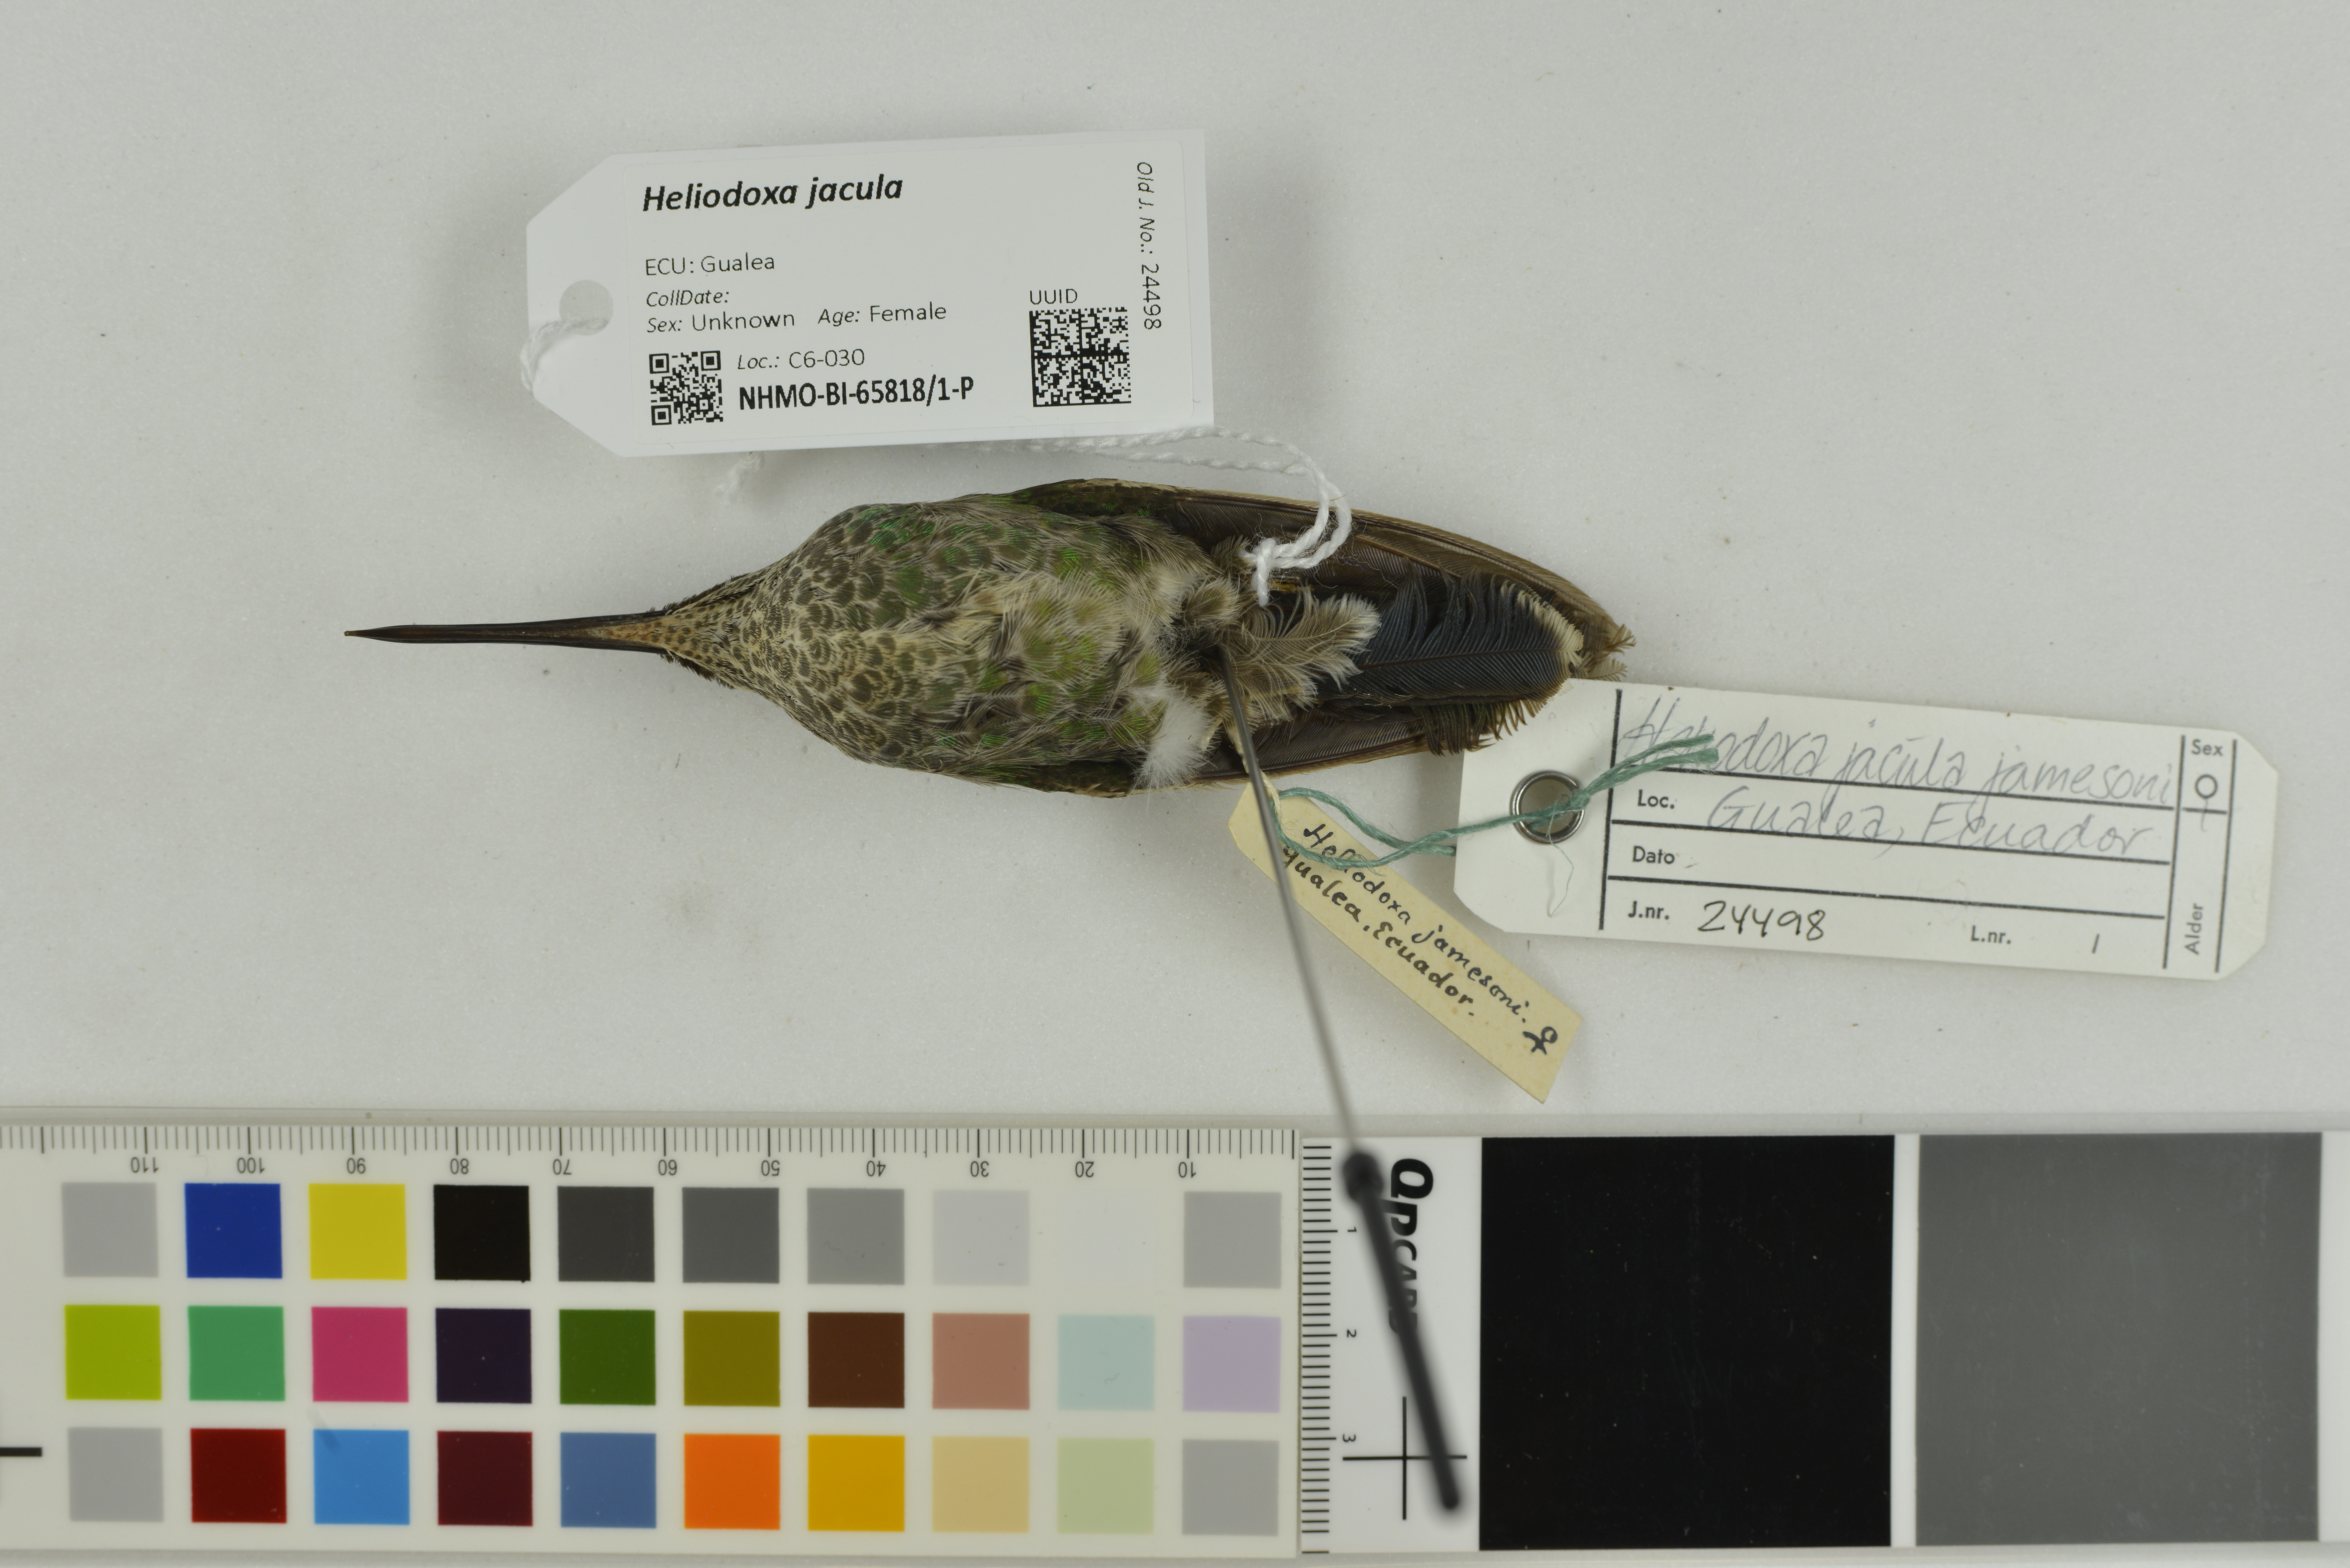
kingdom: Animalia
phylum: Chordata
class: Aves
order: Apodiformes
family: Trochilidae
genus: Heliodoxa
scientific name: Heliodoxa jacula
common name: Green-crowned brilliant
